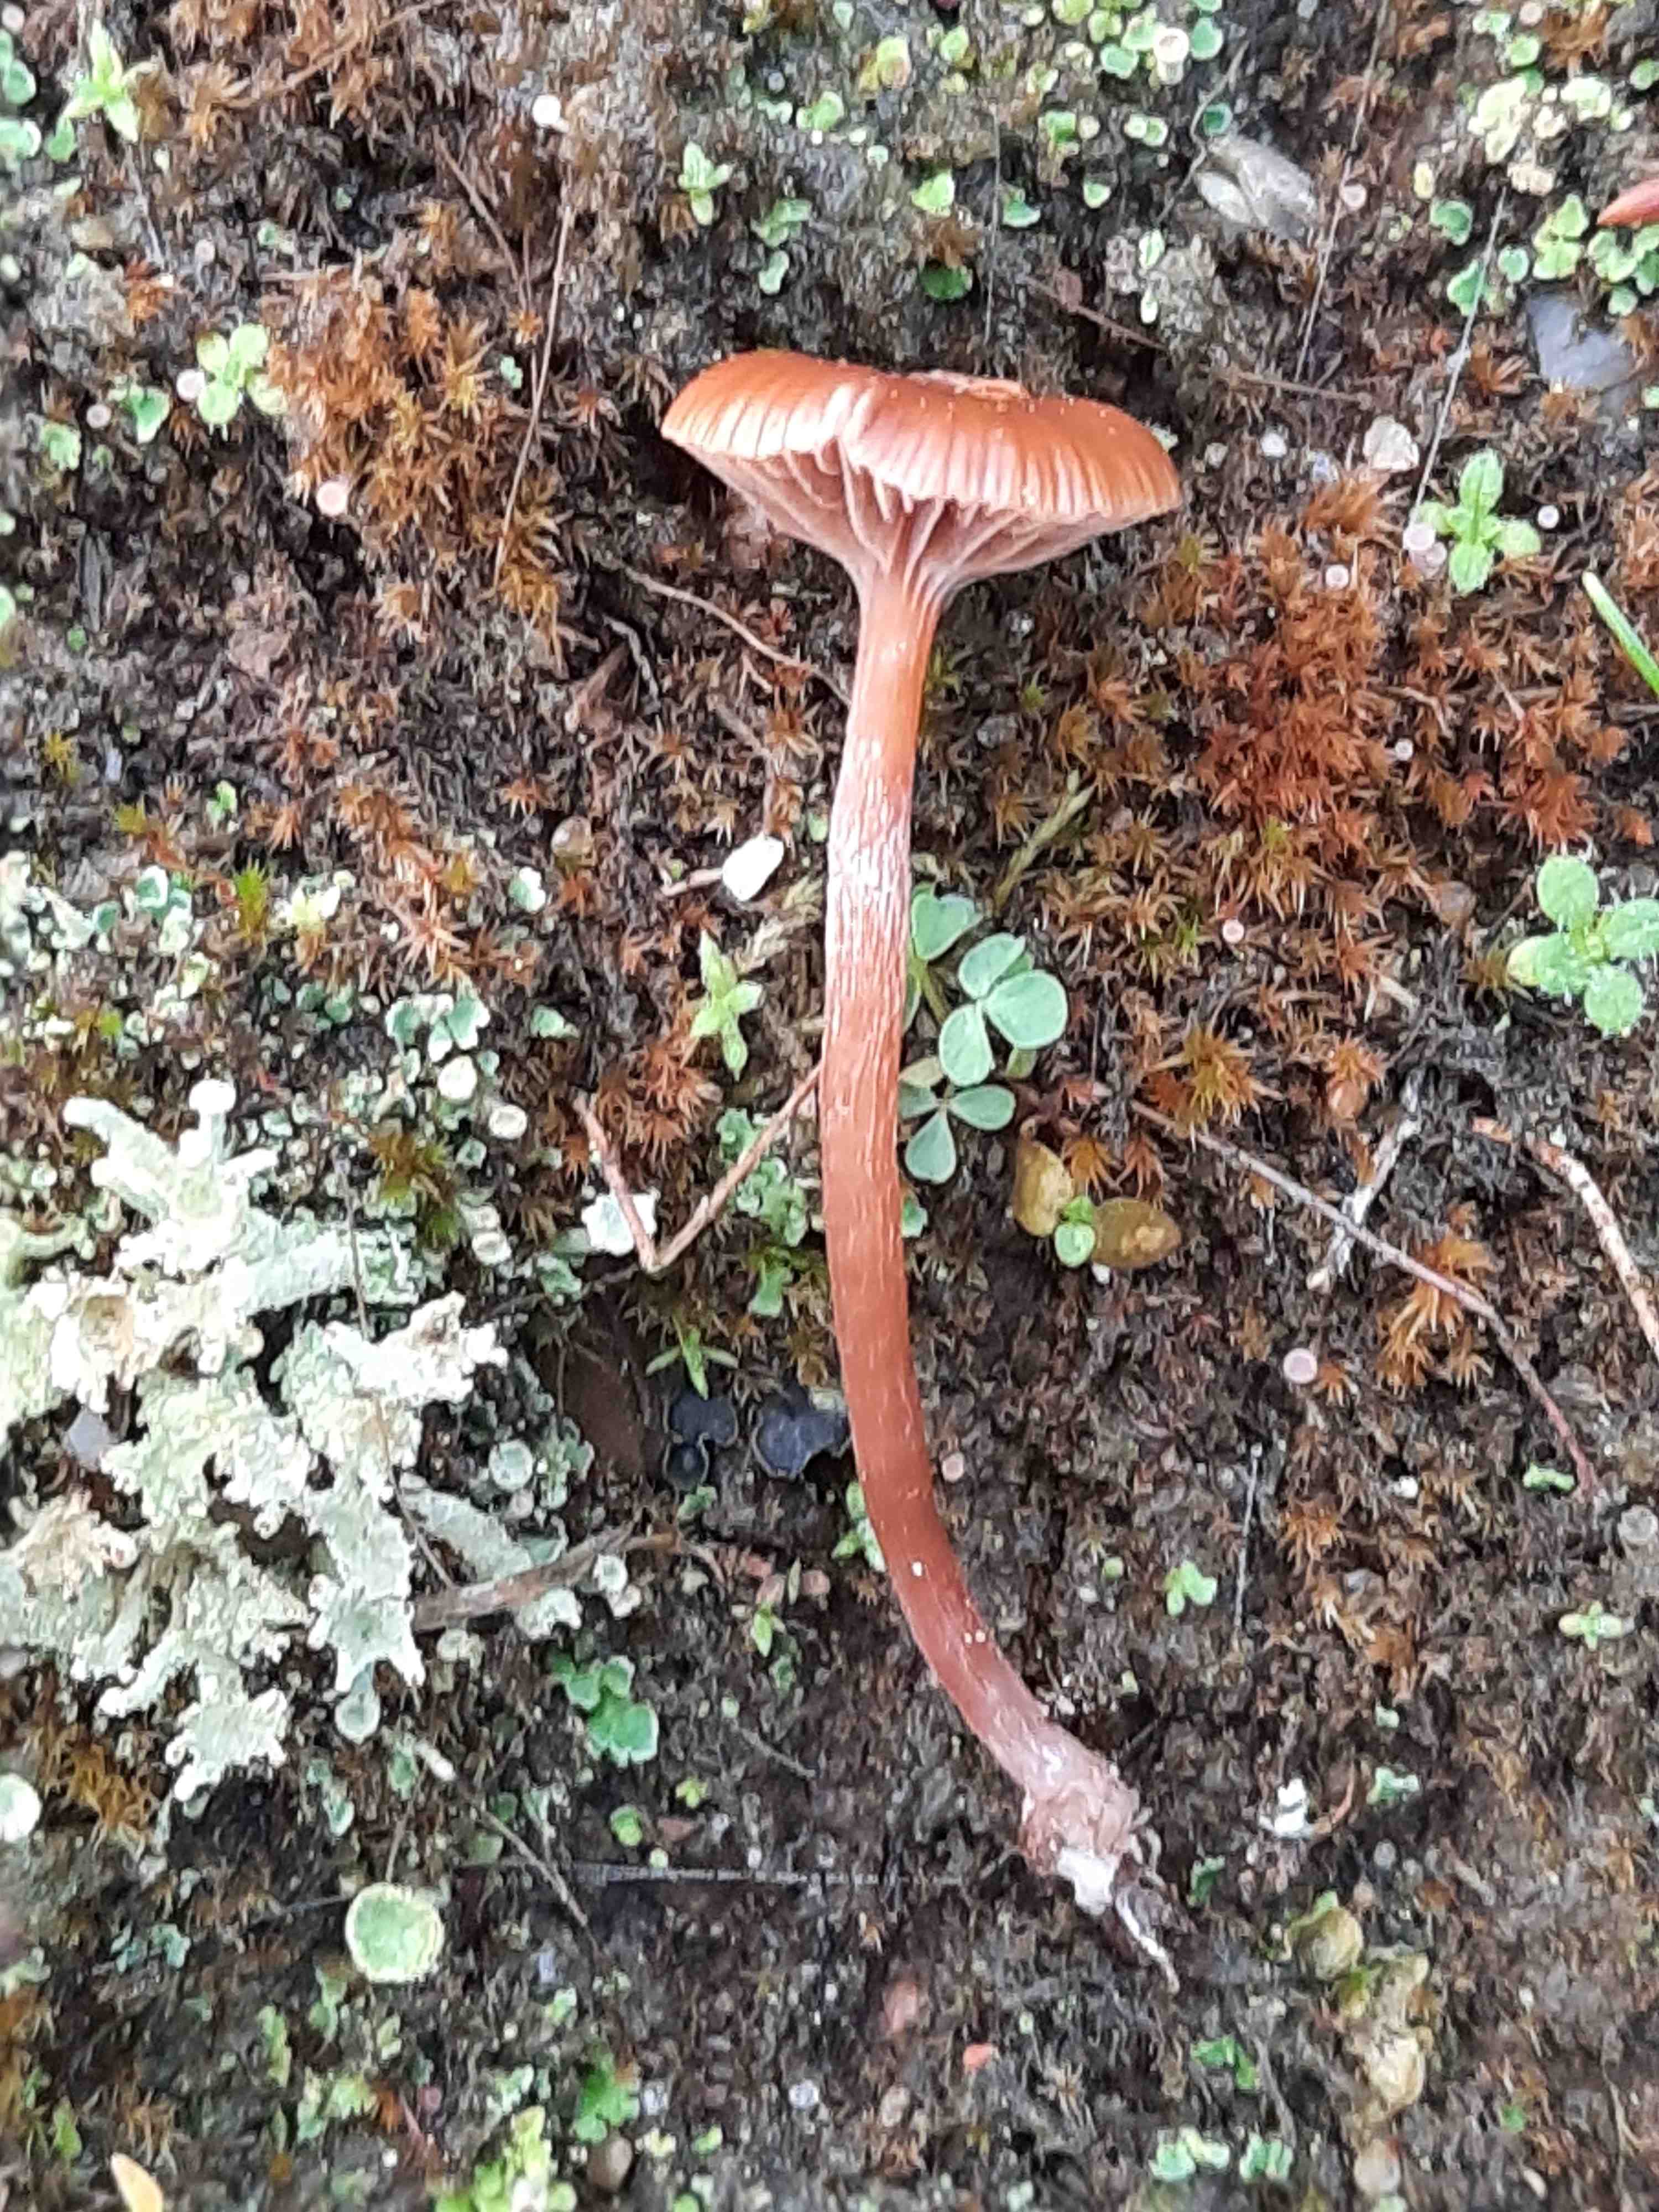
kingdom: Fungi
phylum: Basidiomycota
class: Agaricomycetes
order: Agaricales
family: Strophariaceae
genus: Deconica
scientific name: Deconica montana
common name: rødbrun stråhat
